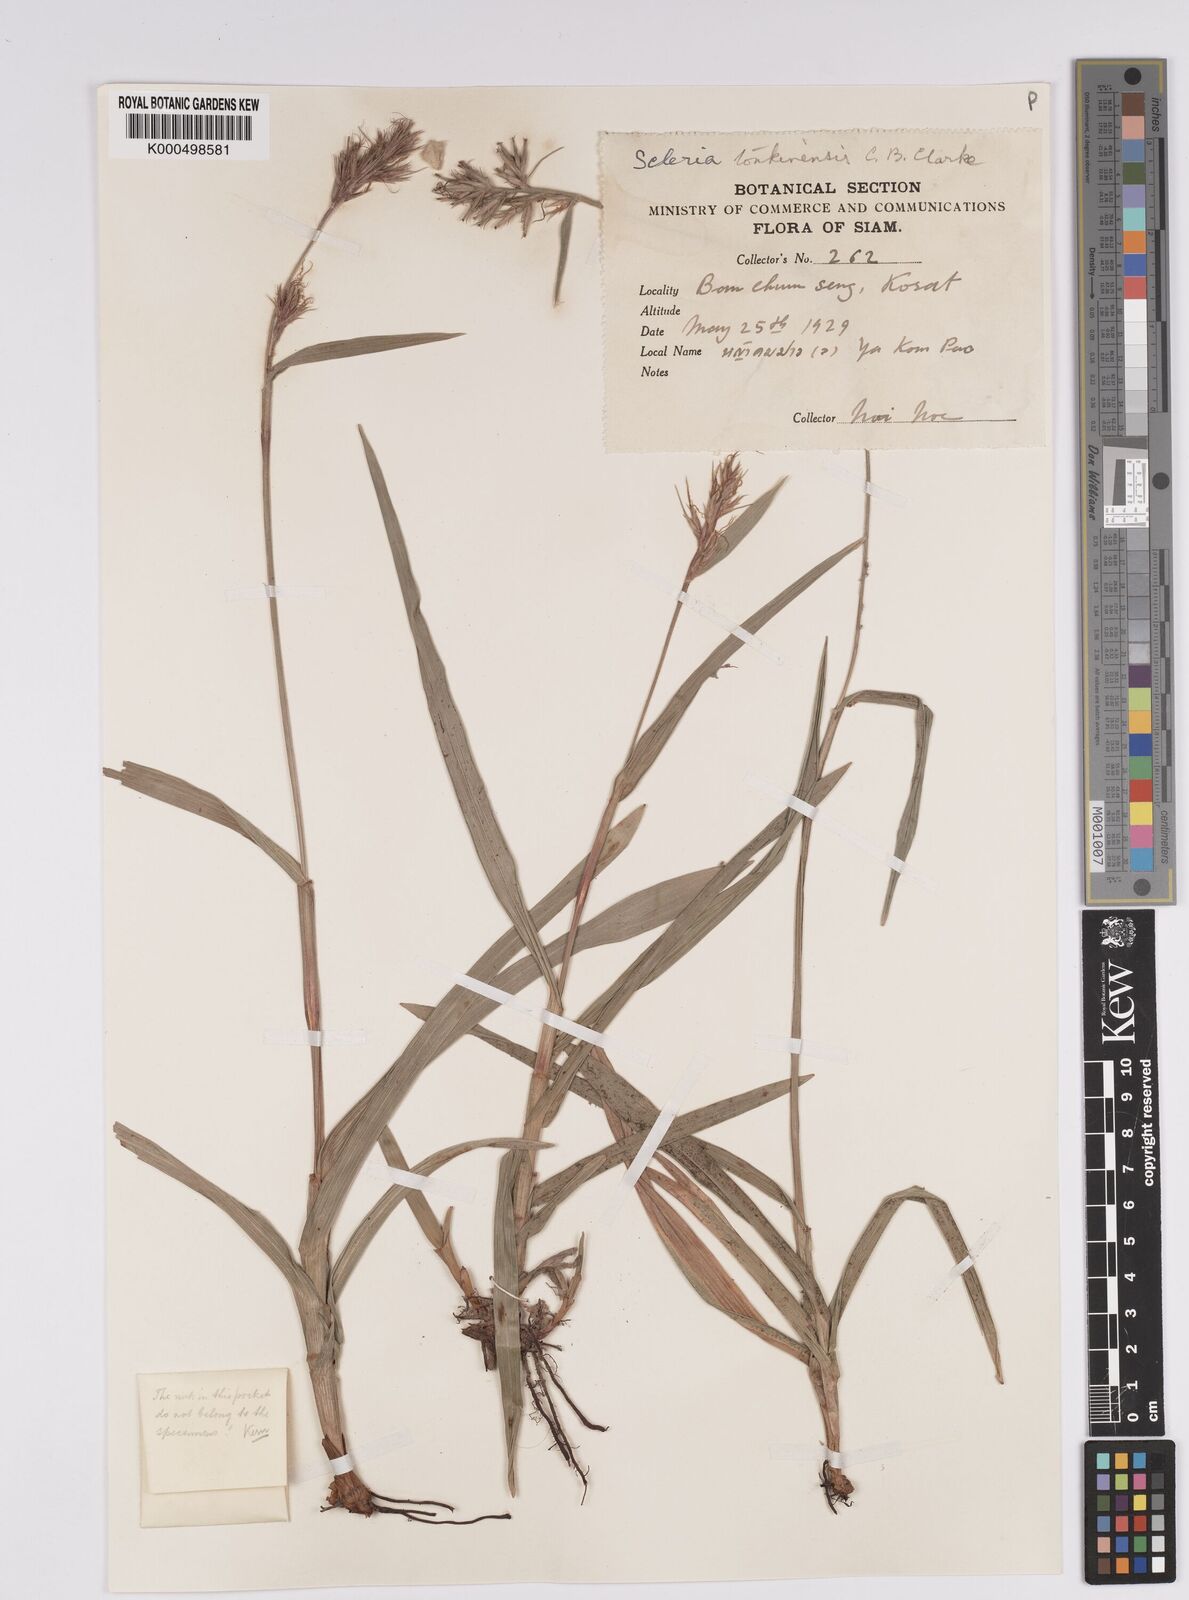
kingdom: Plantae
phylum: Tracheophyta
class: Liliopsida
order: Poales
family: Cyperaceae
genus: Scleria
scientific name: Scleria tonkinensis
